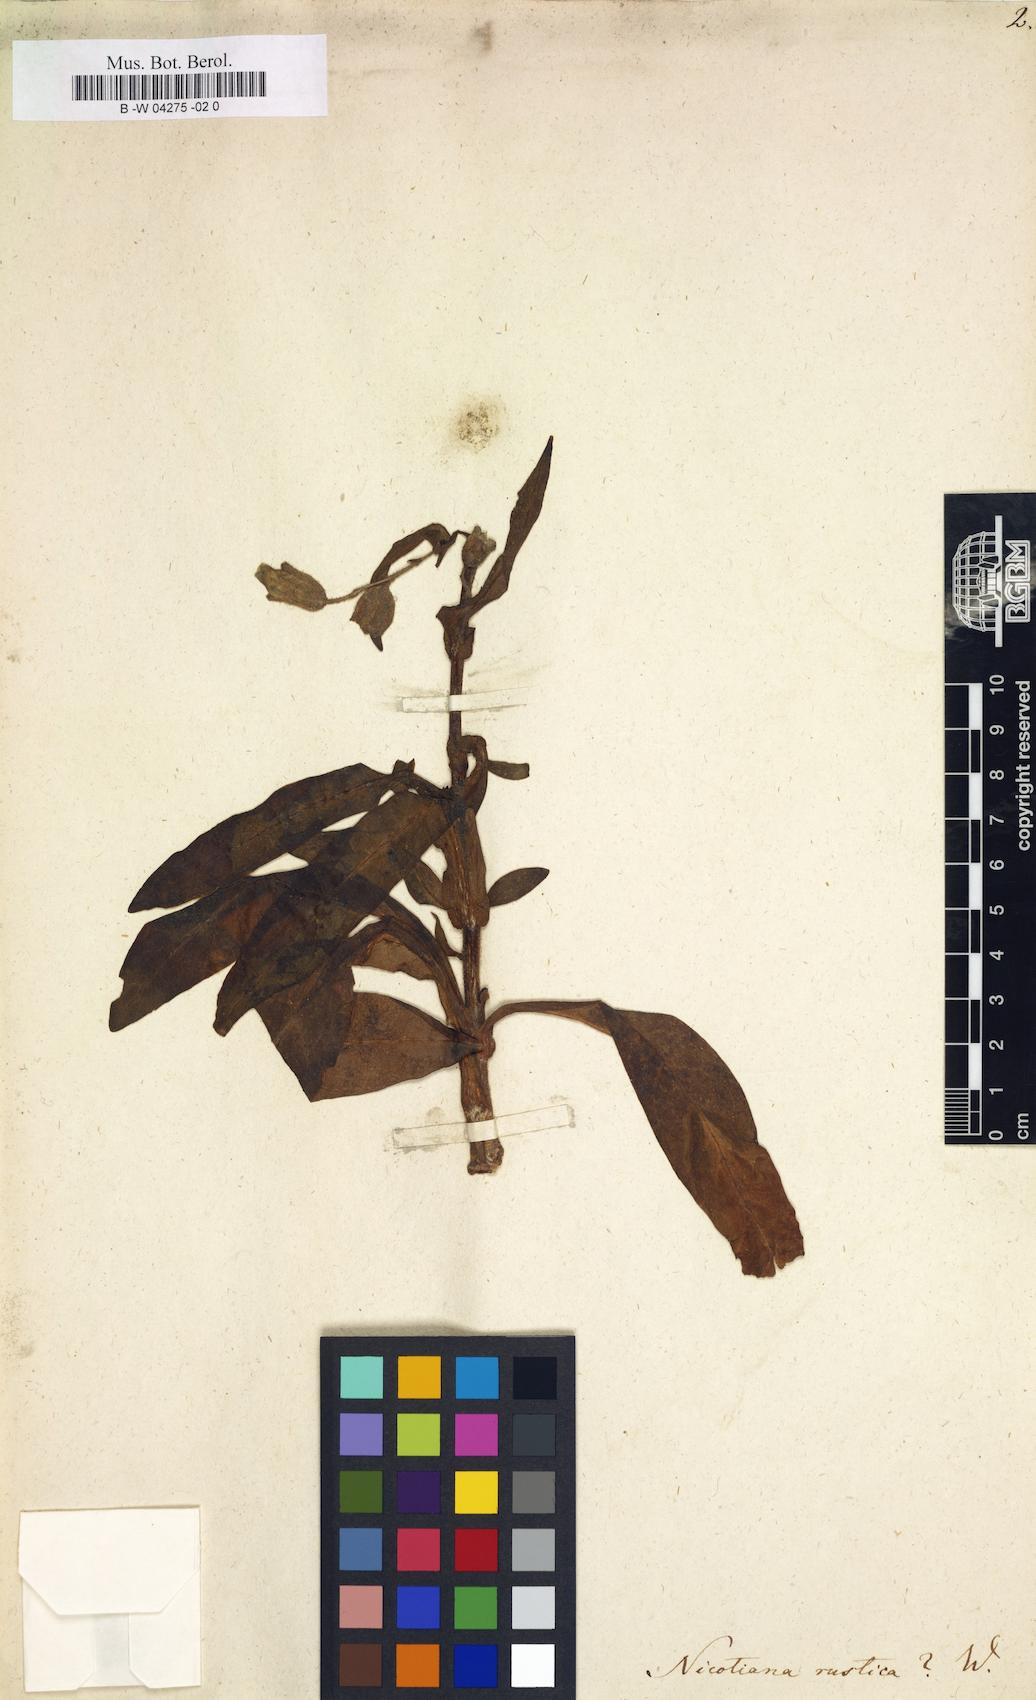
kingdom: Plantae
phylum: Tracheophyta
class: Magnoliopsida
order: Solanales
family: Solanaceae
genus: Nicotiana
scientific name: Nicotiana rustica
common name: Wild tobacco
